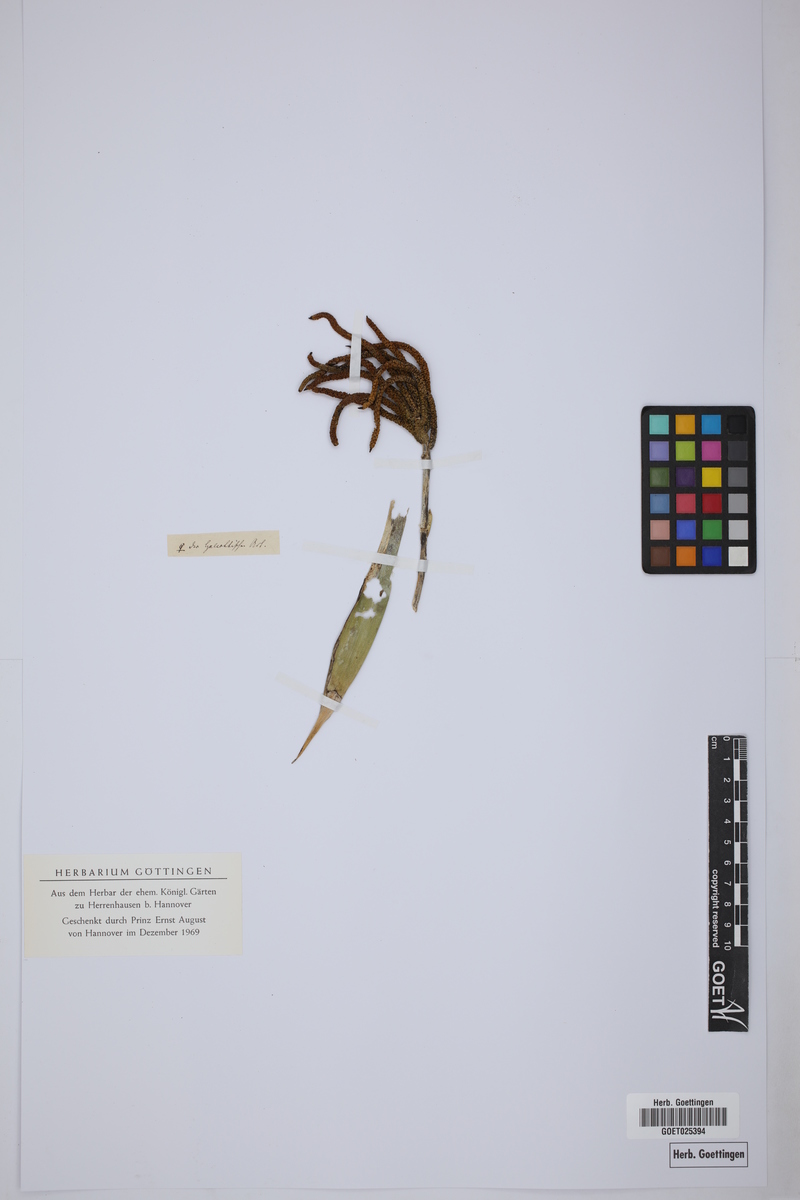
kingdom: Plantae
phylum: Tracheophyta
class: Liliopsida
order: Arecales
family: Arecaceae
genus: Chamaedorea
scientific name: Chamaedorea tepejilote
